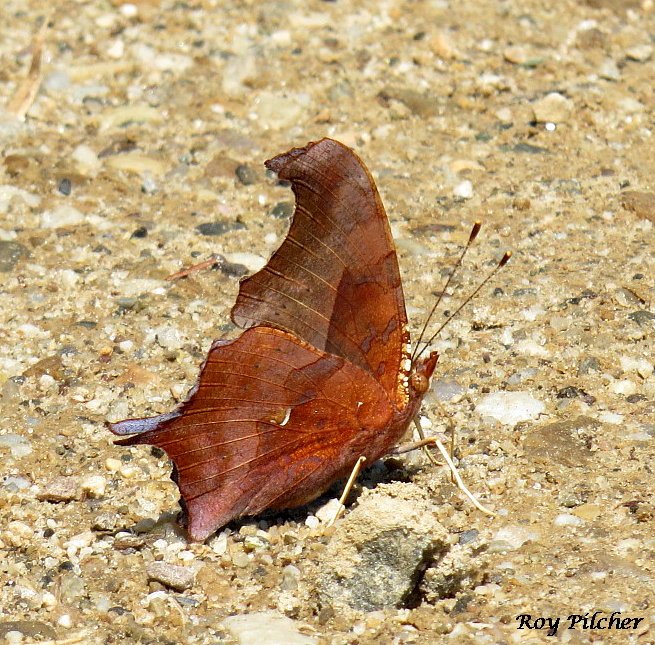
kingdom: Animalia
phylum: Arthropoda
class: Insecta
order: Lepidoptera
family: Nymphalidae
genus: Polygonia
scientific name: Polygonia interrogationis
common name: Question Mark
